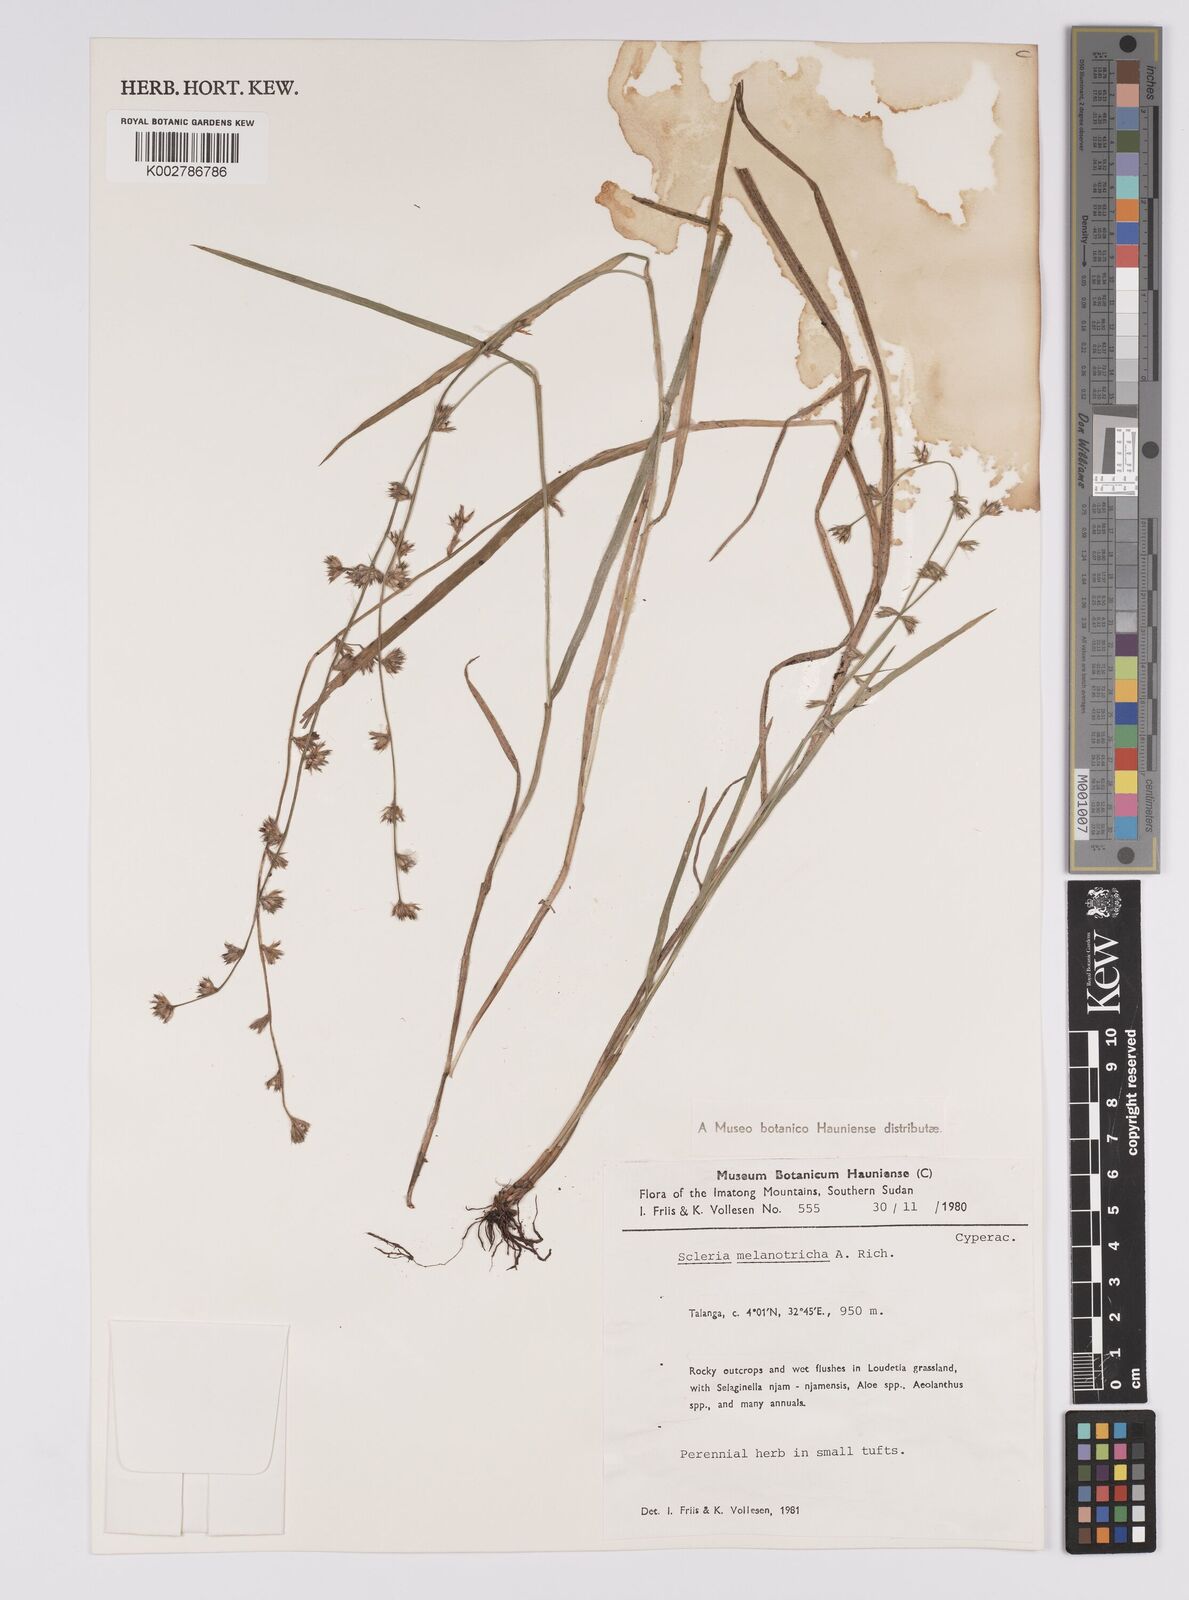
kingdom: Plantae
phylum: Tracheophyta
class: Liliopsida
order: Poales
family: Cyperaceae
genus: Scleria
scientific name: Scleria melanotricha
